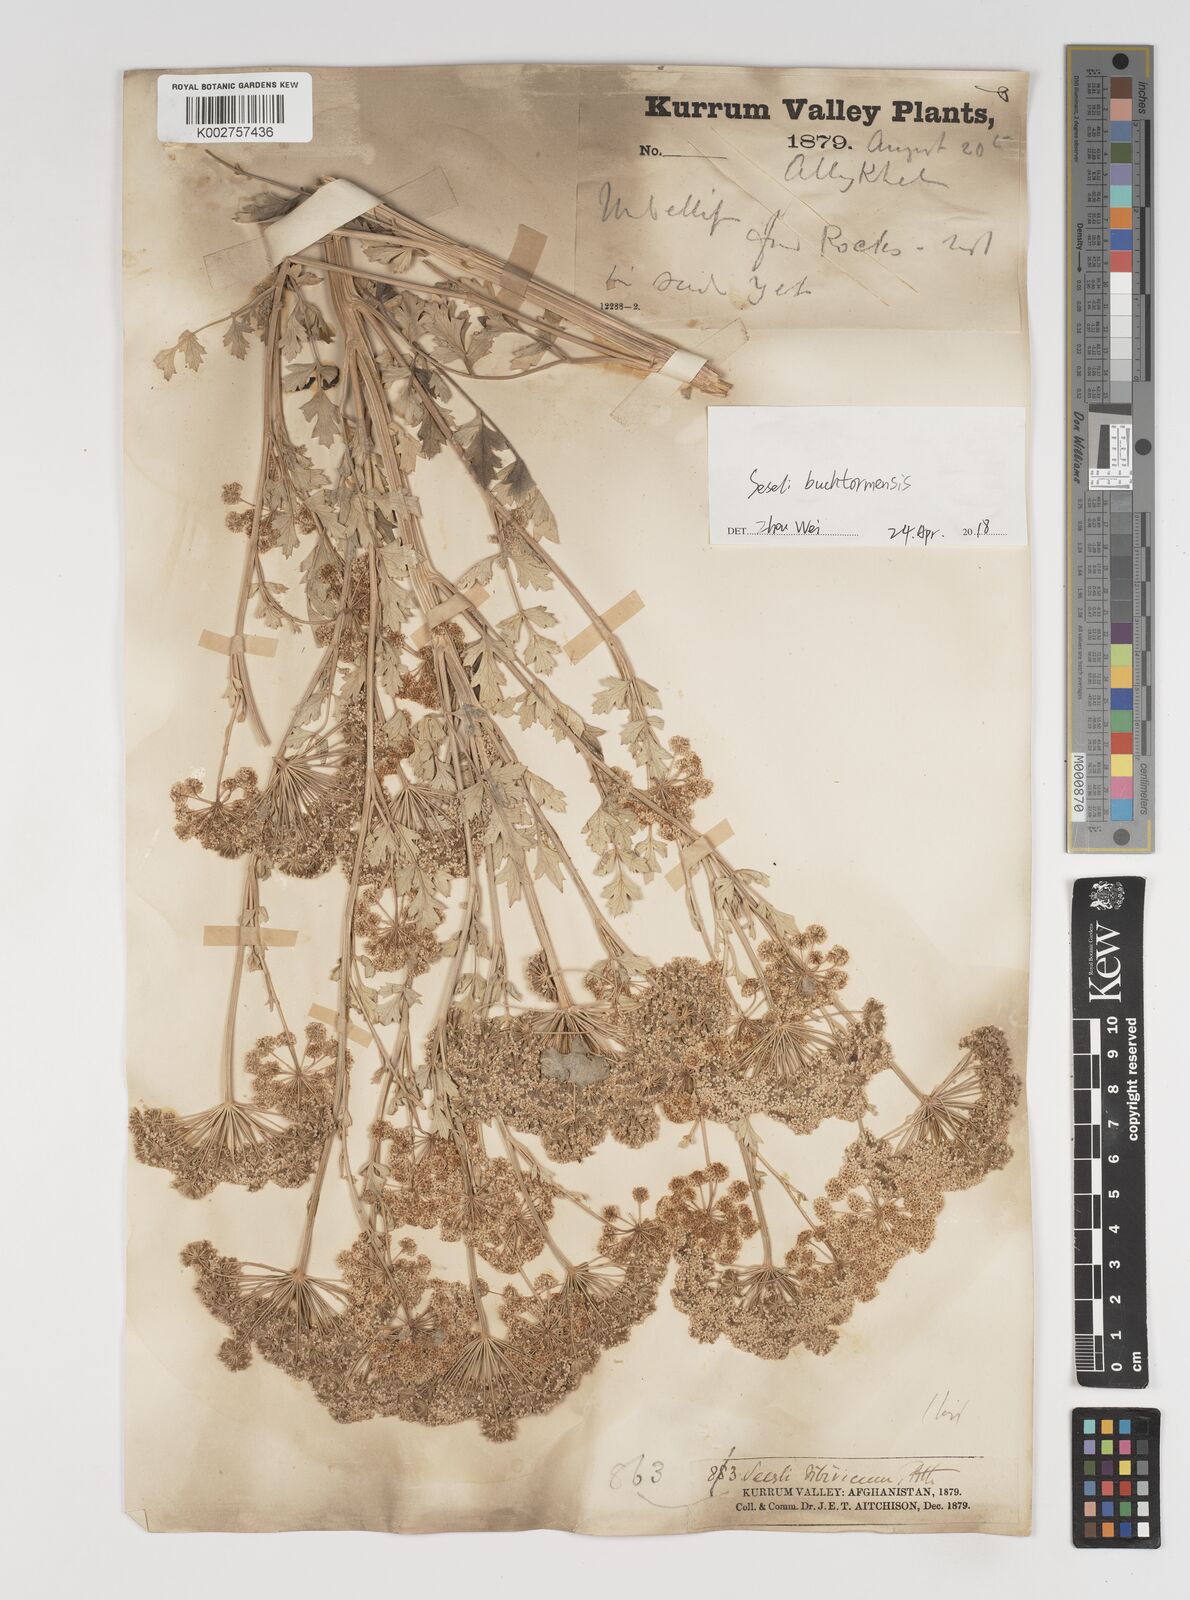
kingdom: Plantae
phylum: Tracheophyta
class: Magnoliopsida
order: Apiales
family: Apiaceae
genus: Seseli
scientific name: Seseli buchtormense
